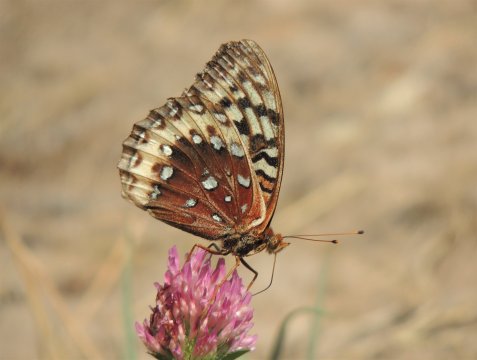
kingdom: Animalia
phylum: Arthropoda
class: Insecta
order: Lepidoptera
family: Nymphalidae
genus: Speyeria
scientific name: Speyeria cybele
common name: Great Spangled Fritillary
